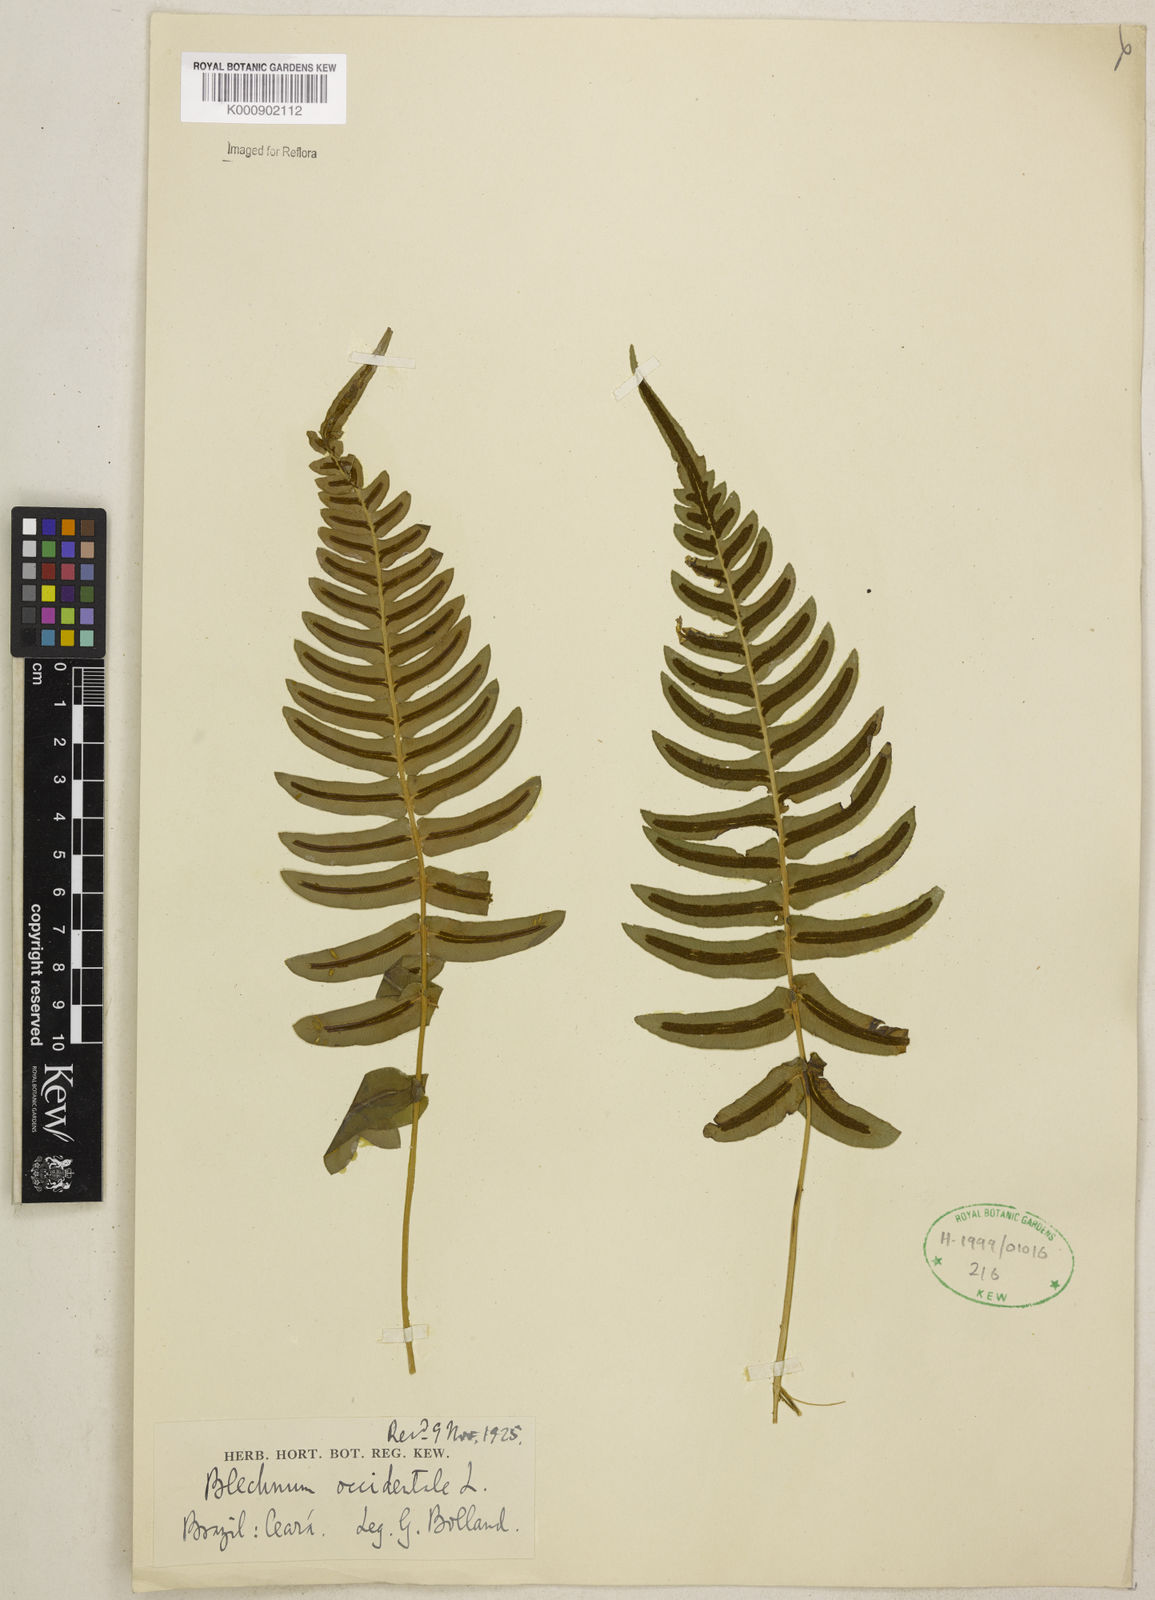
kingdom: Plantae
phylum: Tracheophyta
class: Polypodiopsida
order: Polypodiales
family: Blechnaceae
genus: Blechnum
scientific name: Blechnum occidentale
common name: Hammock fern
